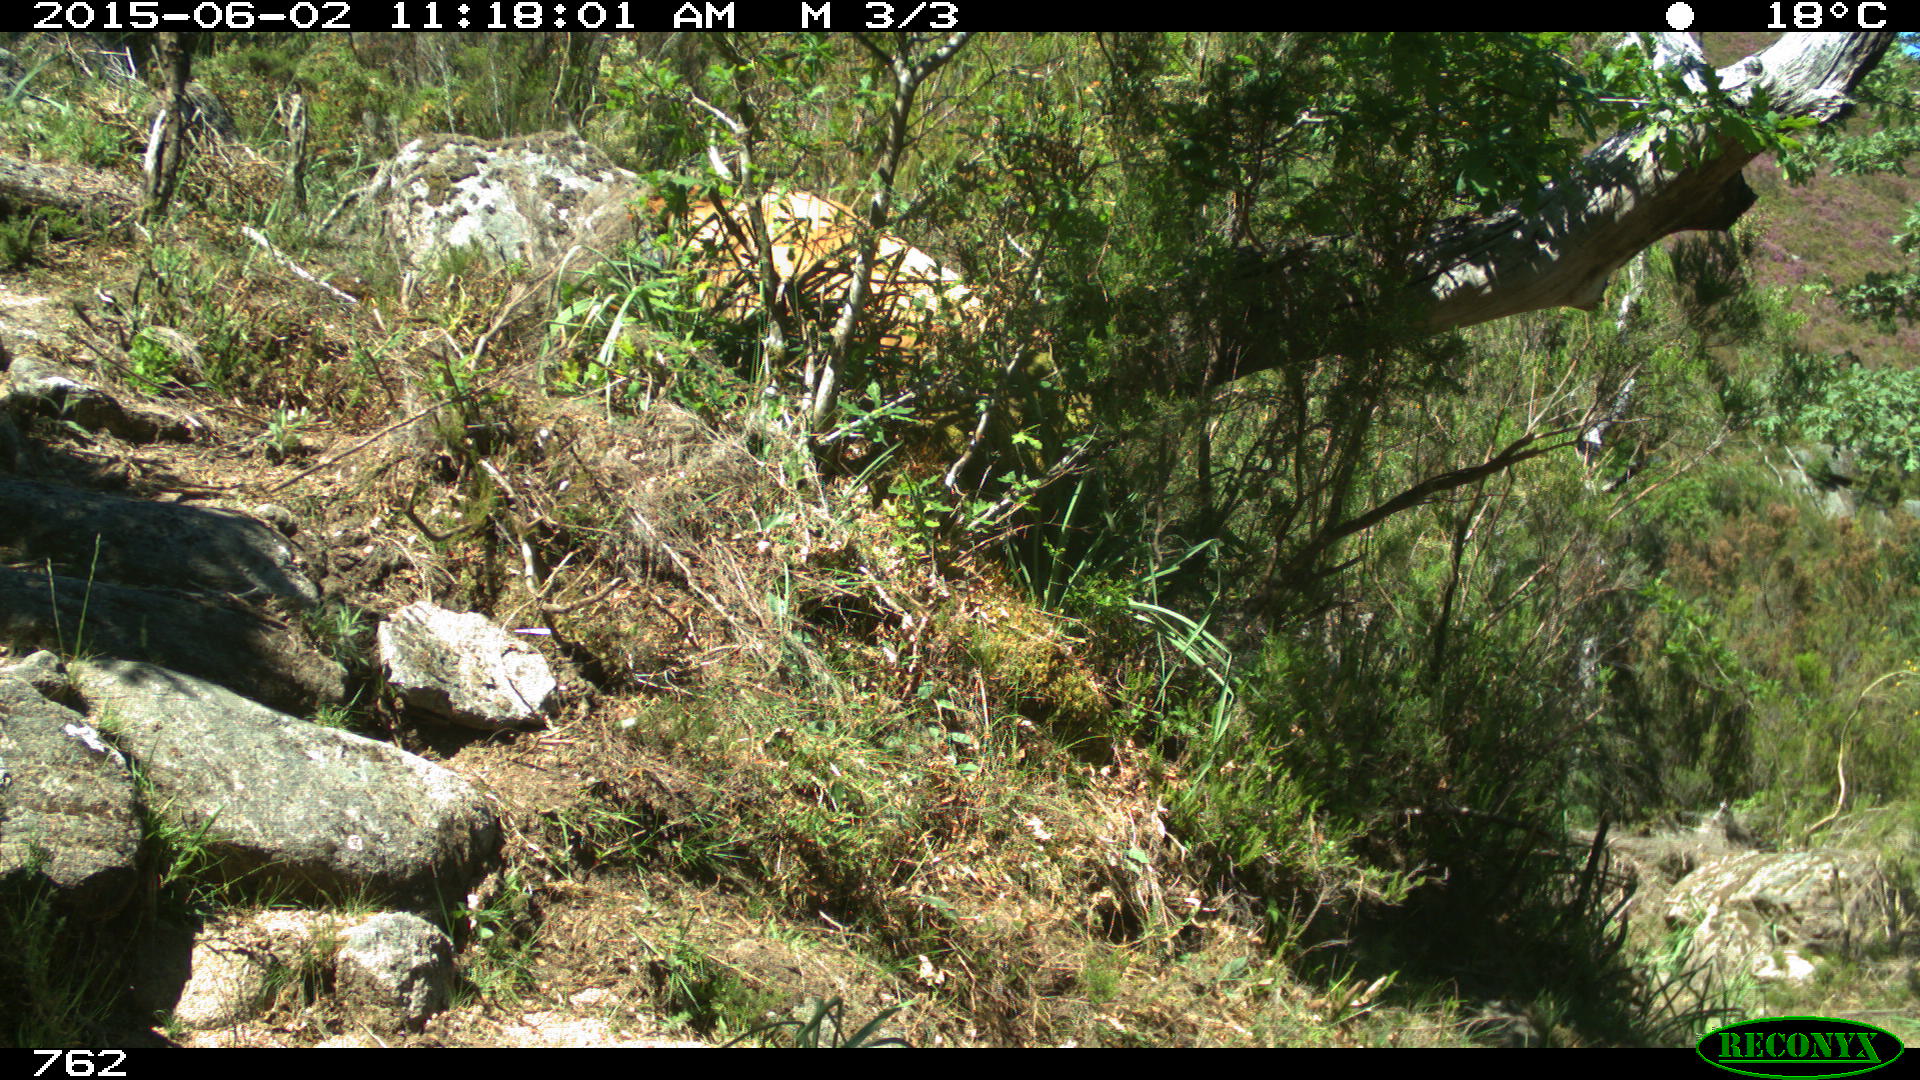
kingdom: Animalia
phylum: Chordata
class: Mammalia
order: Artiodactyla
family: Bovidae
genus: Bos
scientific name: Bos taurus
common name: Domesticated cattle
